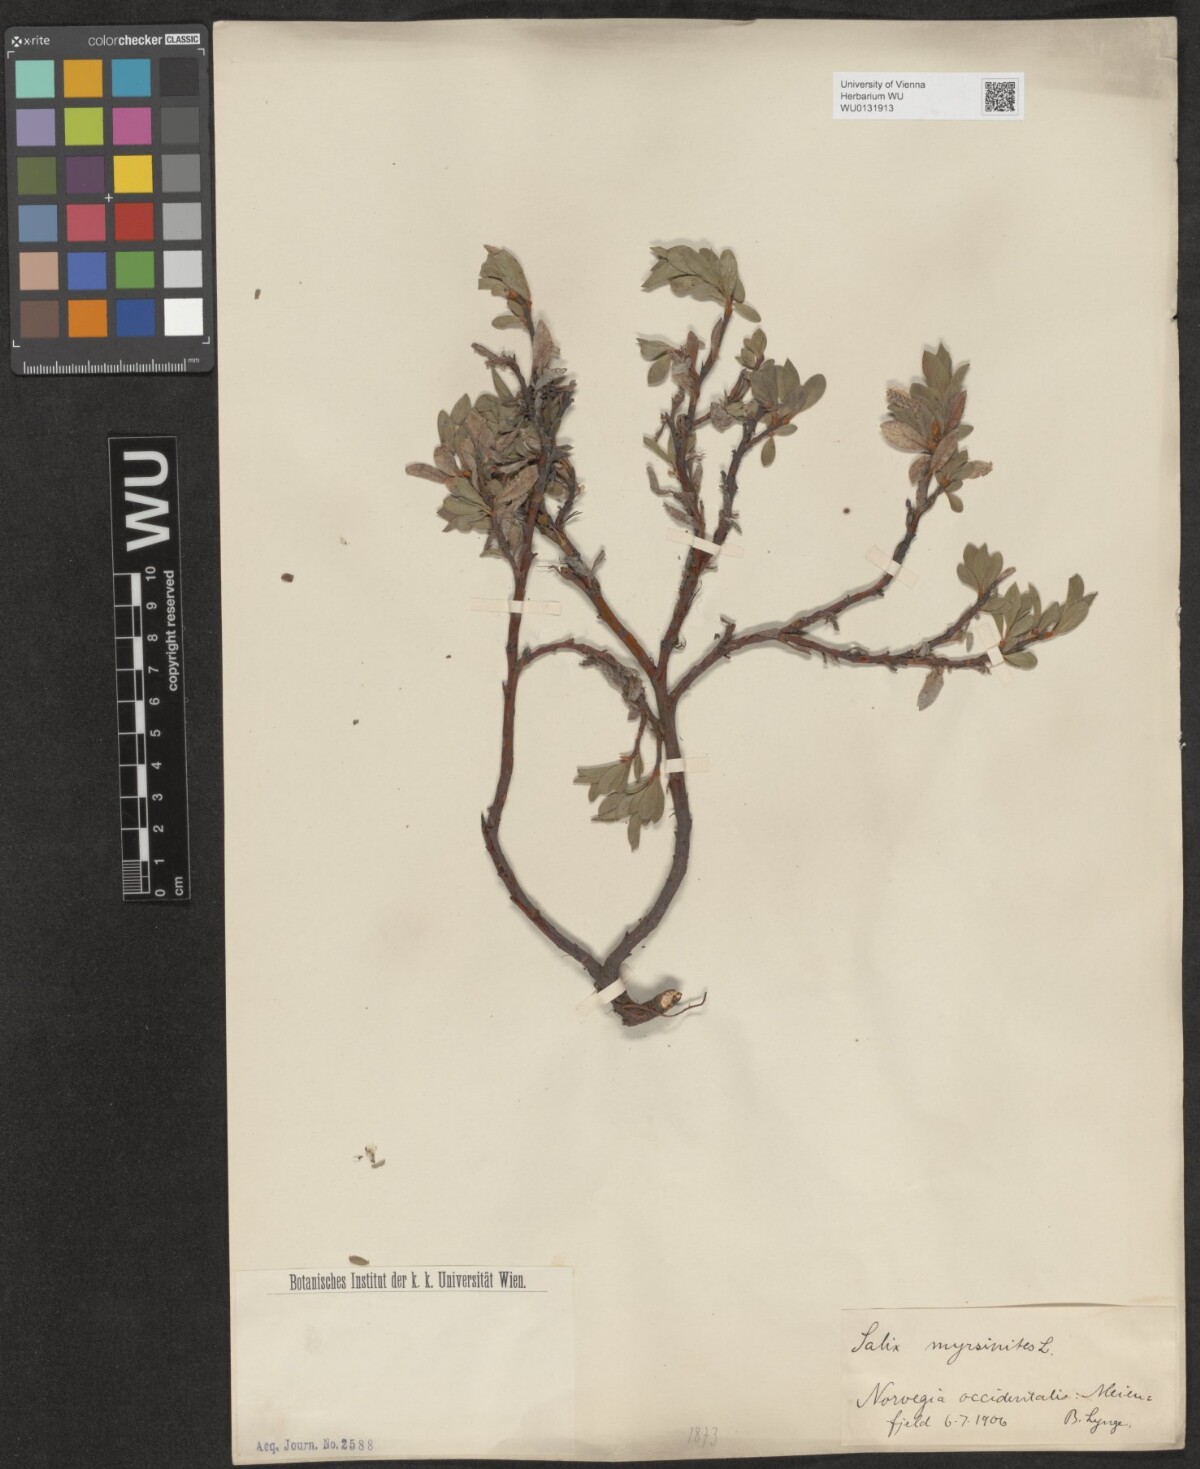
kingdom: Plantae
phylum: Tracheophyta
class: Magnoliopsida
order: Malpighiales
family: Salicaceae
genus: Salix
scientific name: Salix myrsinites
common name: Myrtle willow
